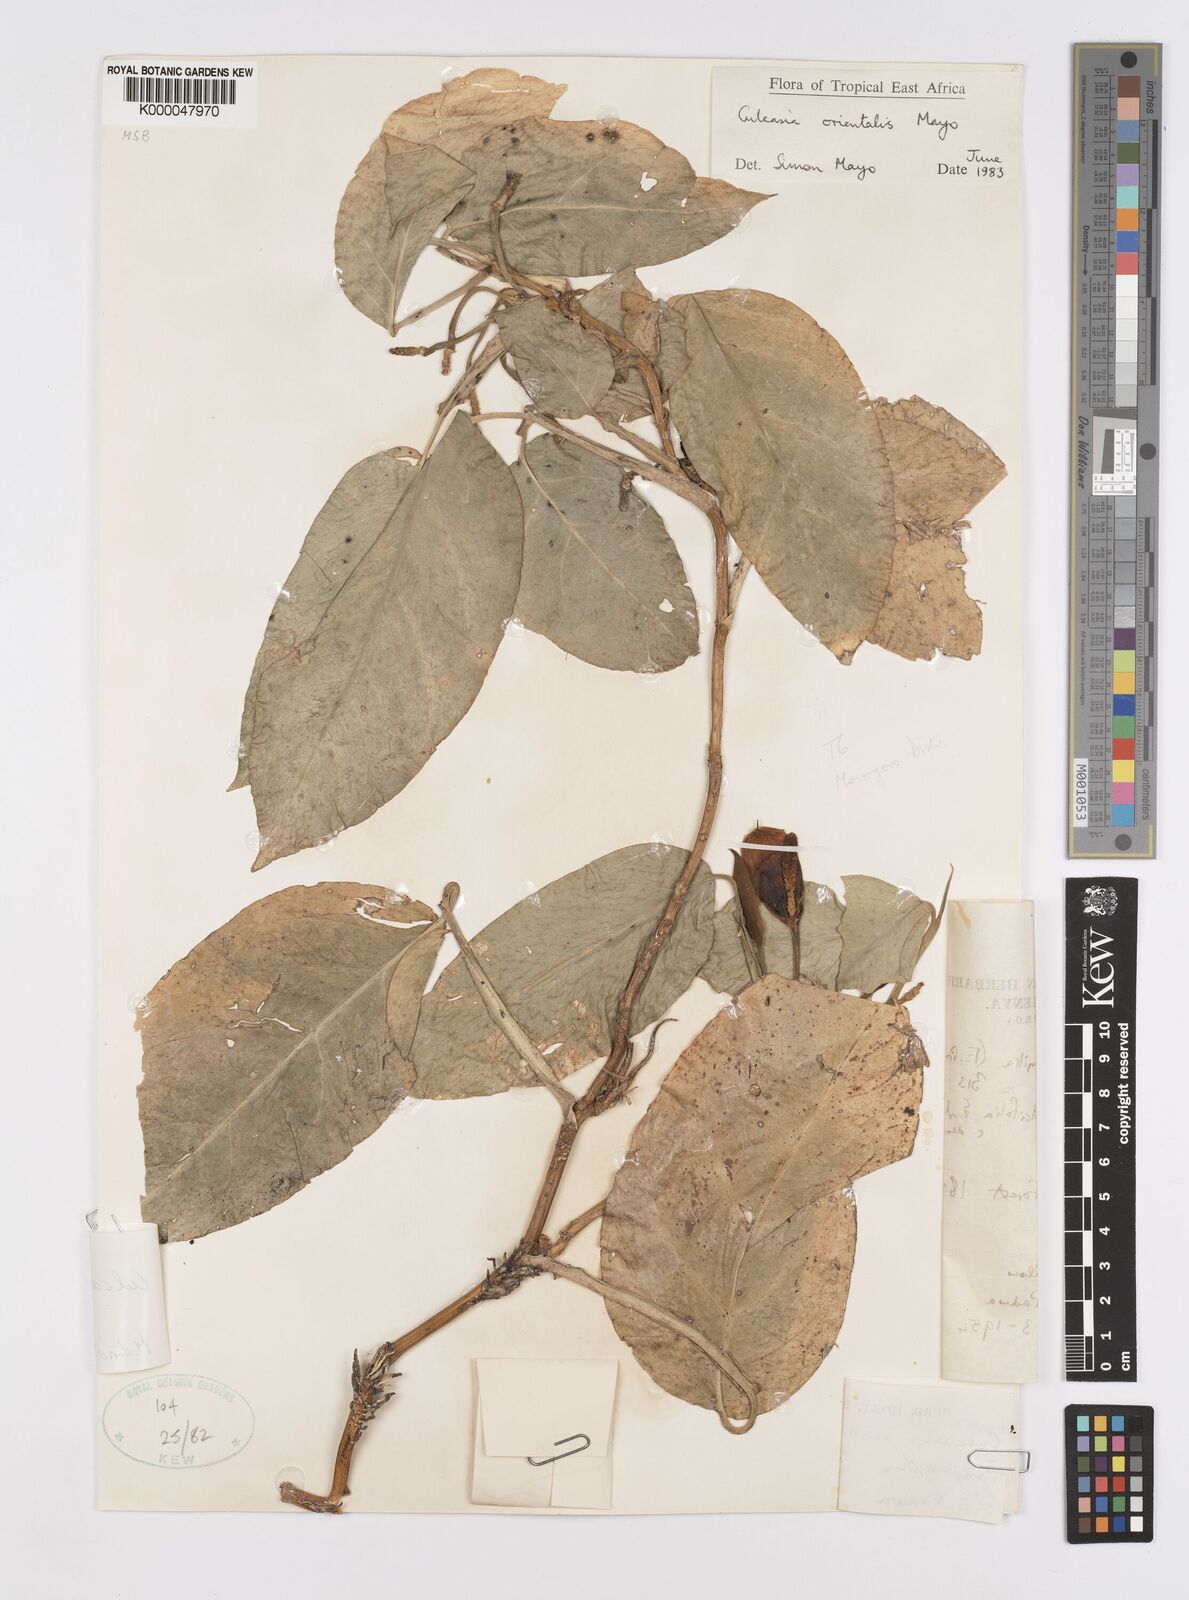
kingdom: Plantae
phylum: Tracheophyta
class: Liliopsida
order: Alismatales
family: Araceae
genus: Culcasia
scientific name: Culcasia orientalis
